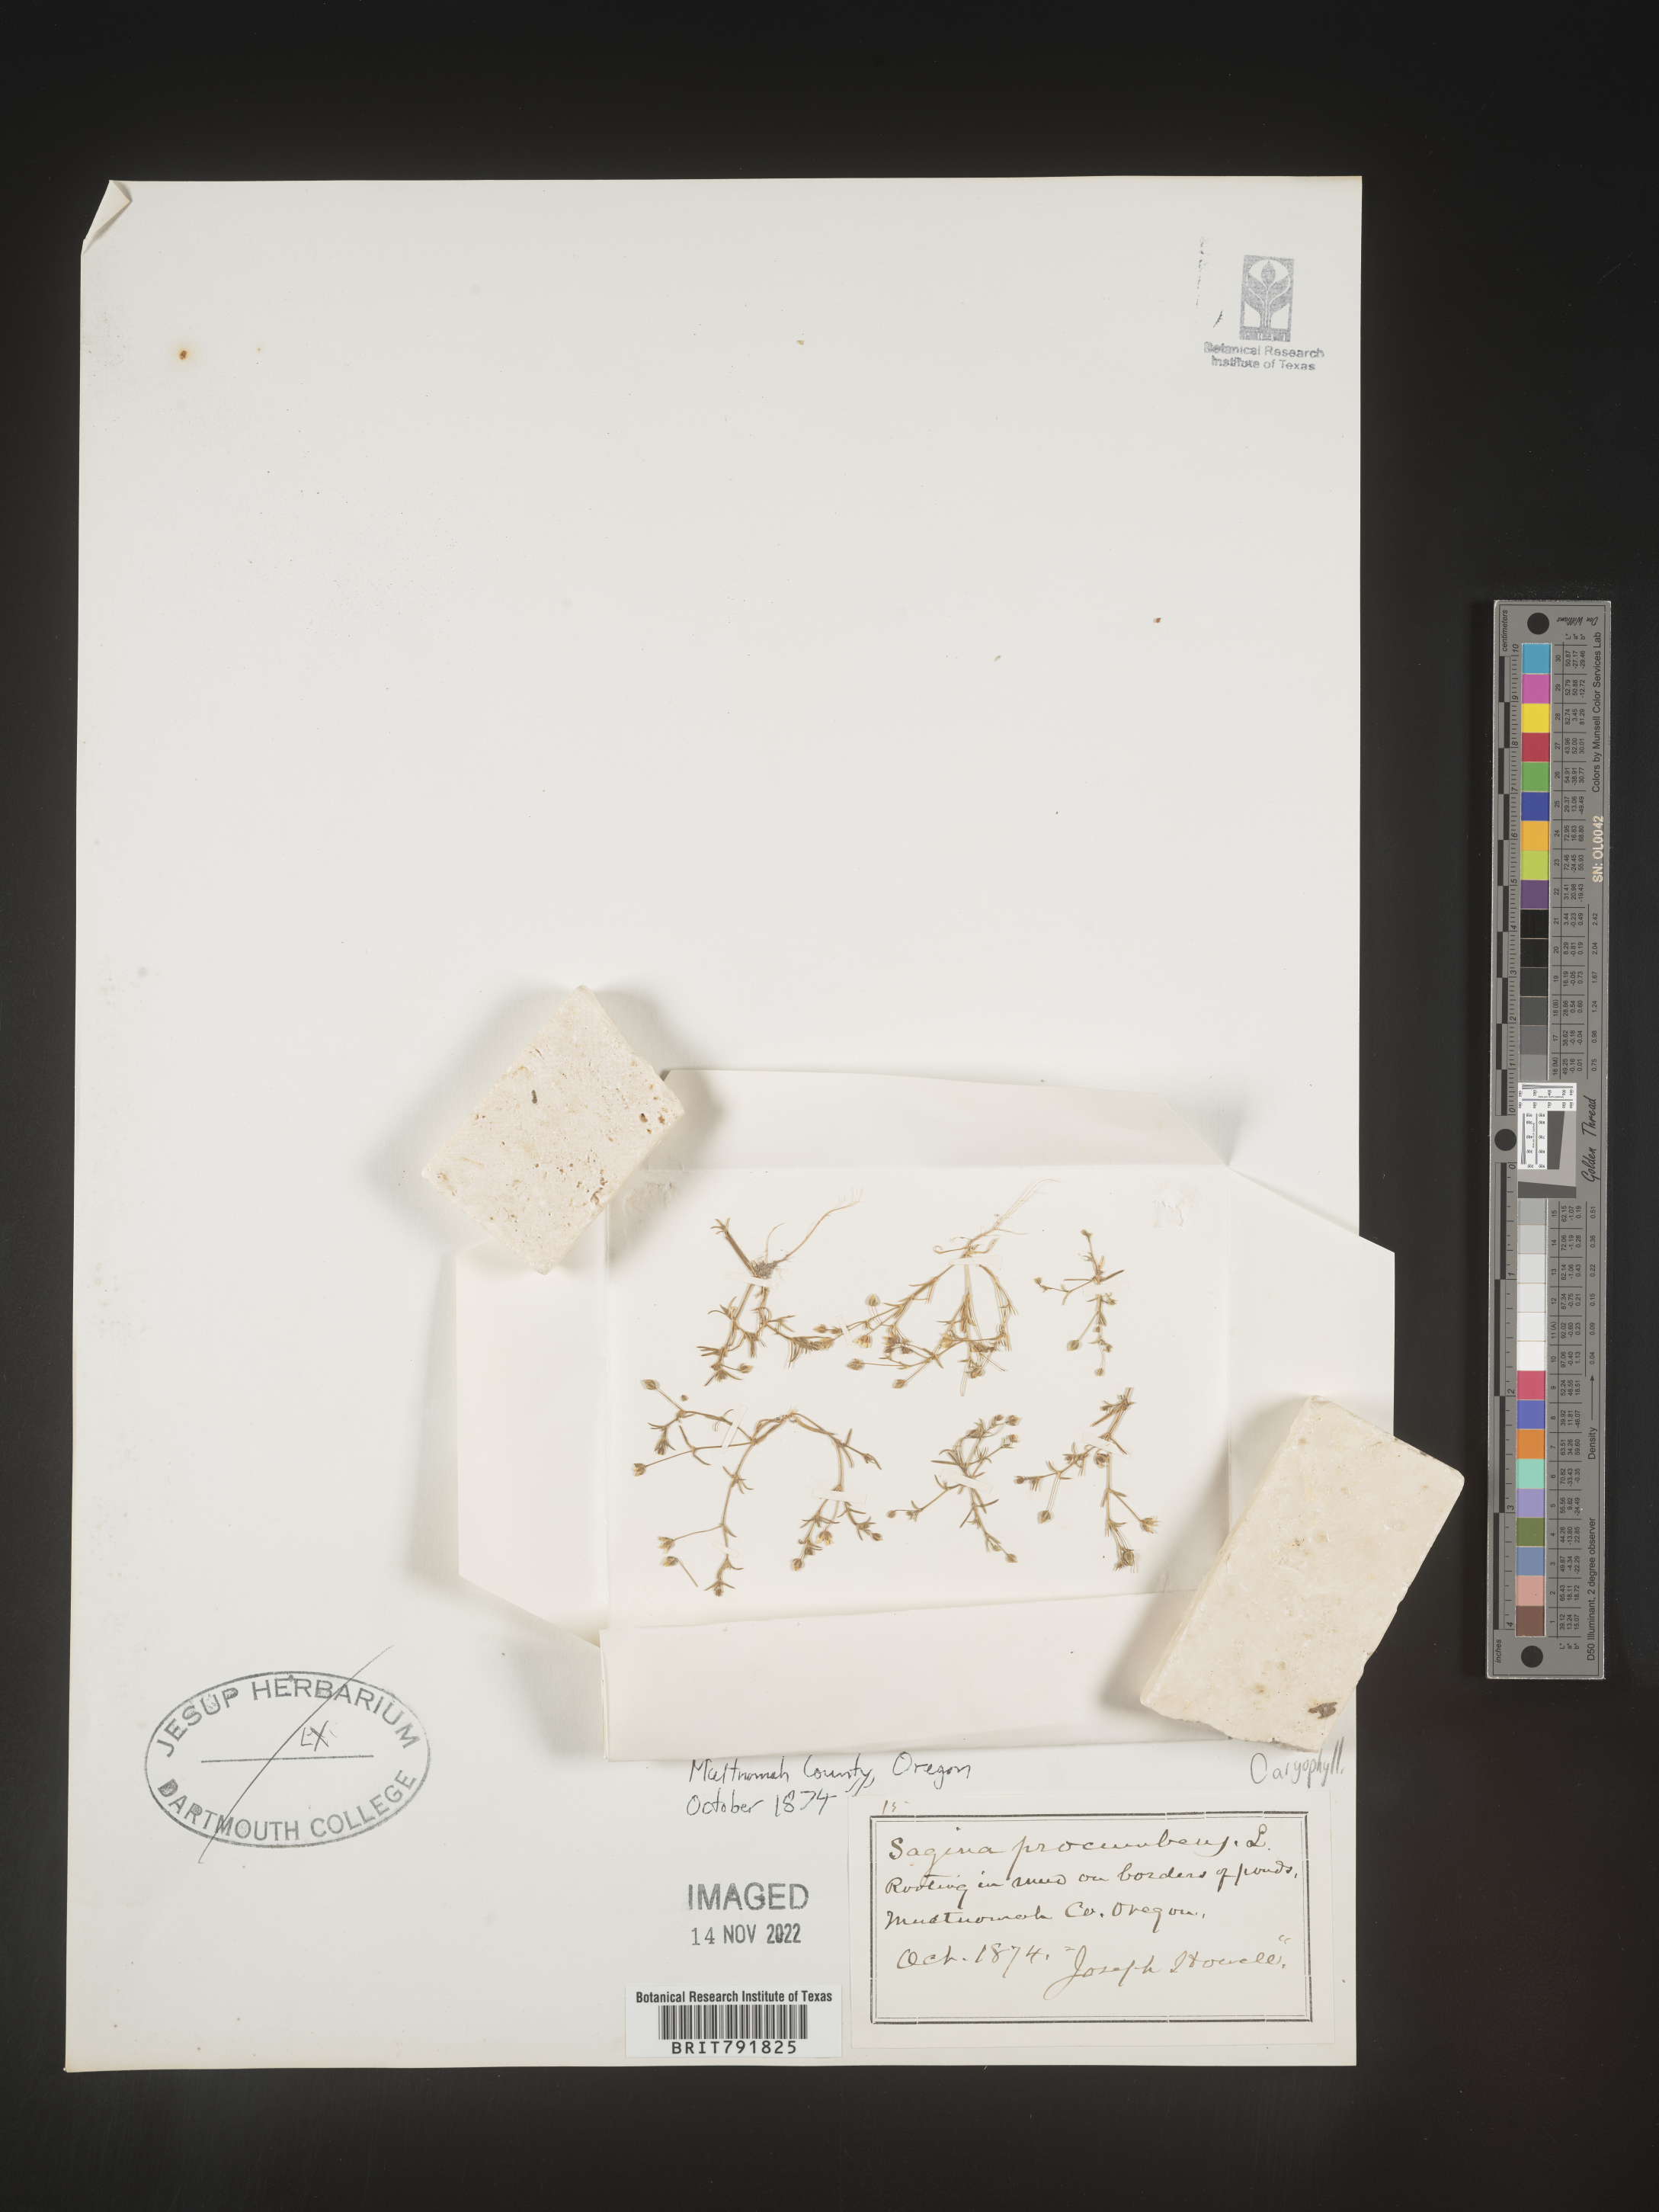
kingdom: Plantae
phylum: Tracheophyta
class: Magnoliopsida
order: Caryophyllales
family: Caryophyllaceae
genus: Sagina
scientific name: Sagina
